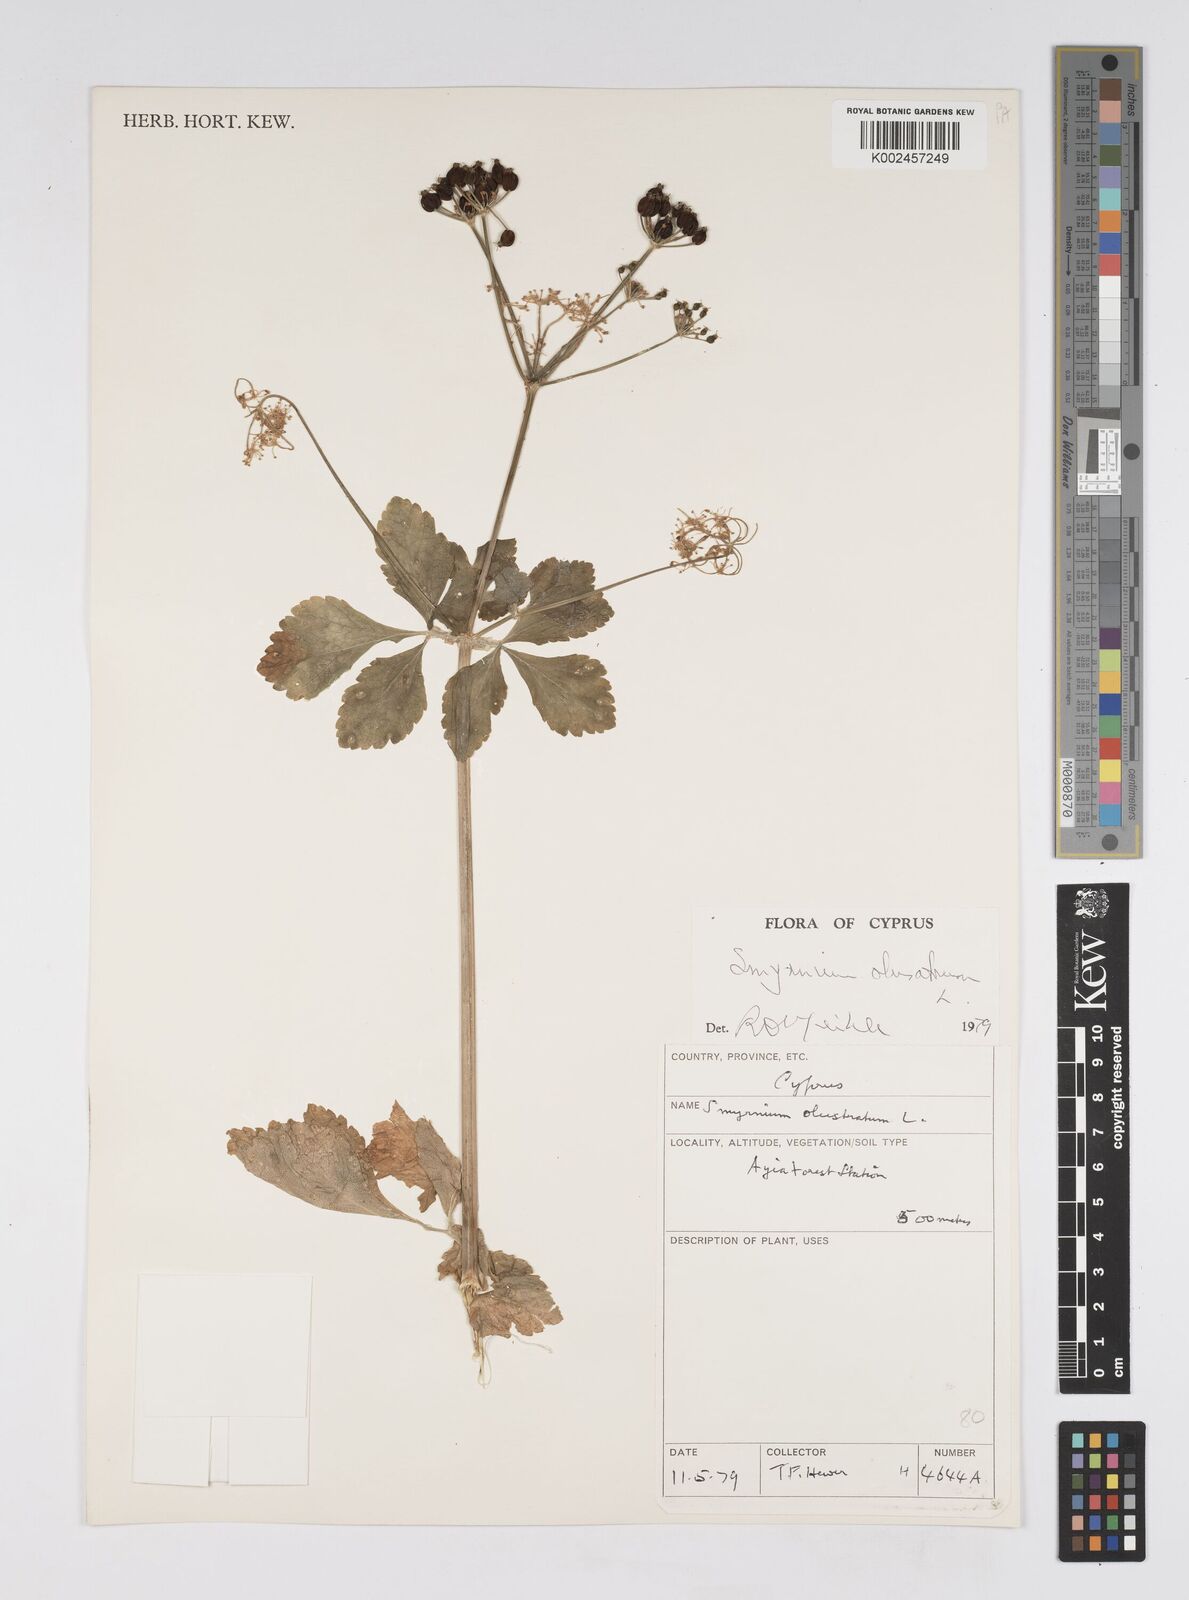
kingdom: Plantae
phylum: Tracheophyta
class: Magnoliopsida
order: Apiales
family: Apiaceae
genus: Smyrnium
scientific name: Smyrnium olusatrum
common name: Alexanders
